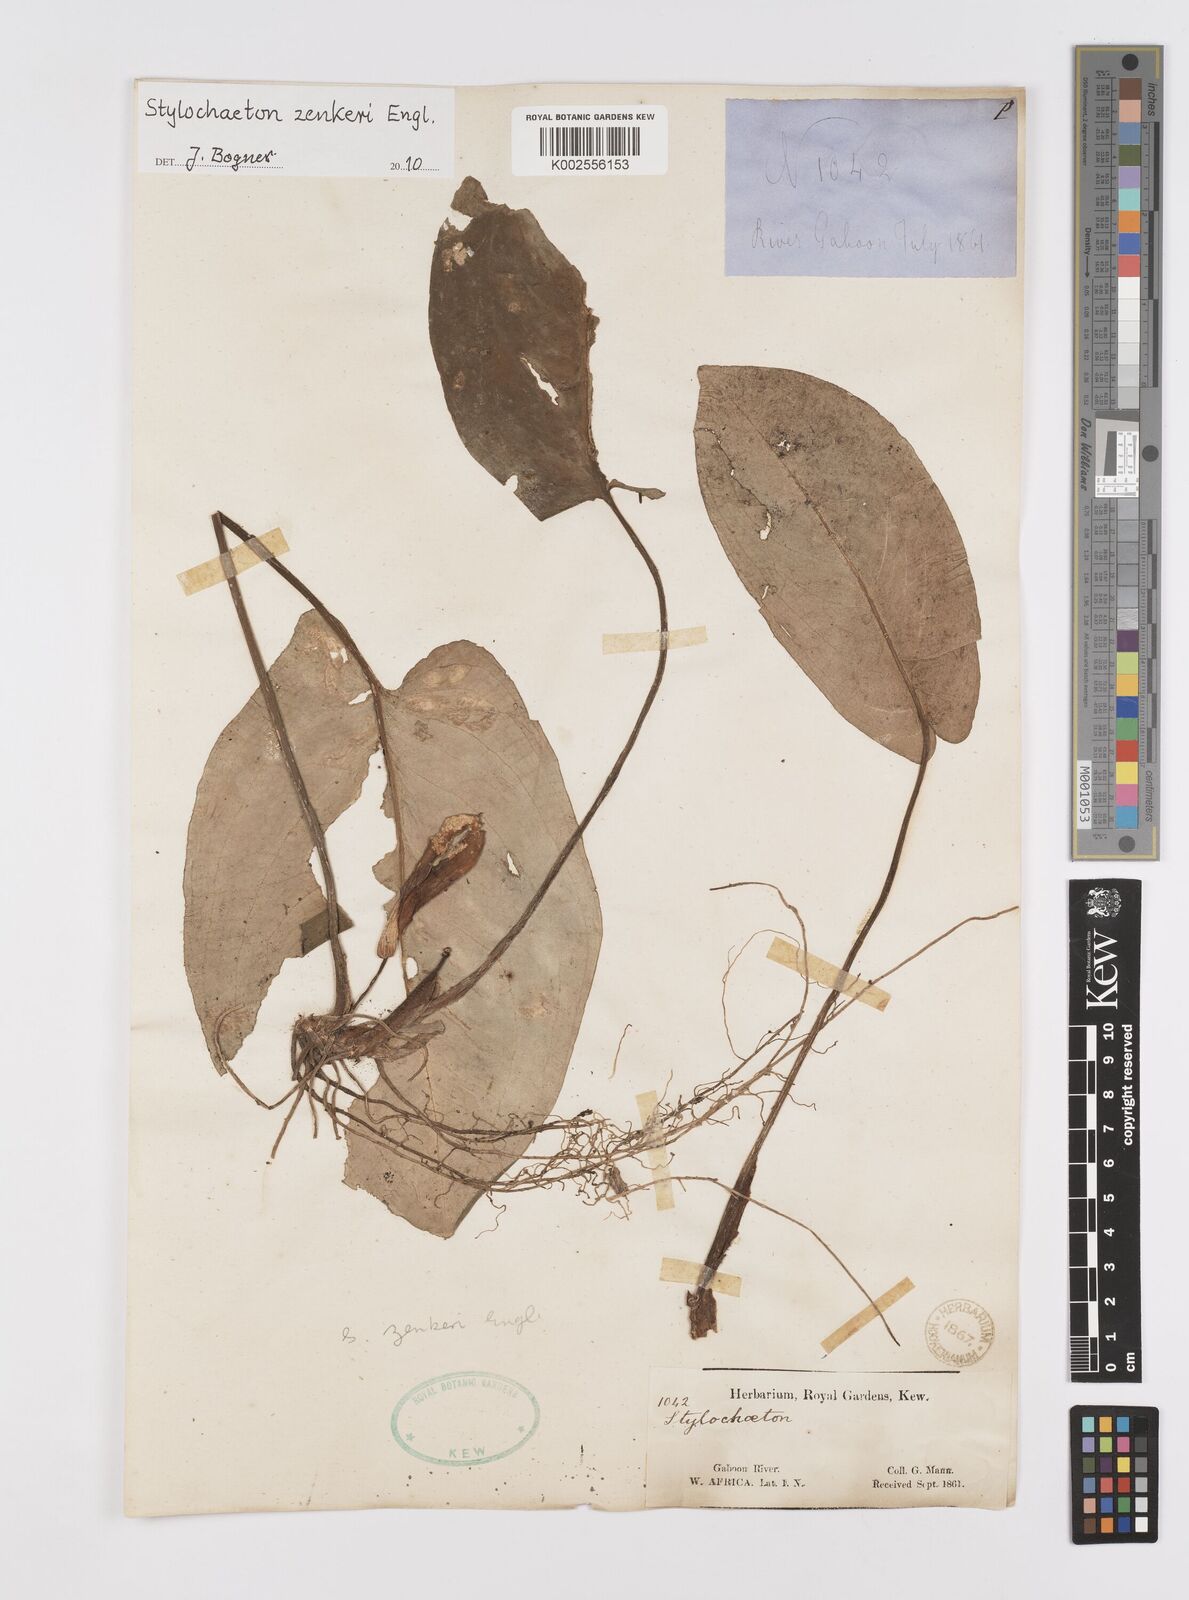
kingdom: Plantae
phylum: Tracheophyta
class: Liliopsida
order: Alismatales
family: Araceae
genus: Stylochaeton
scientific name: Stylochaeton zenkeri
